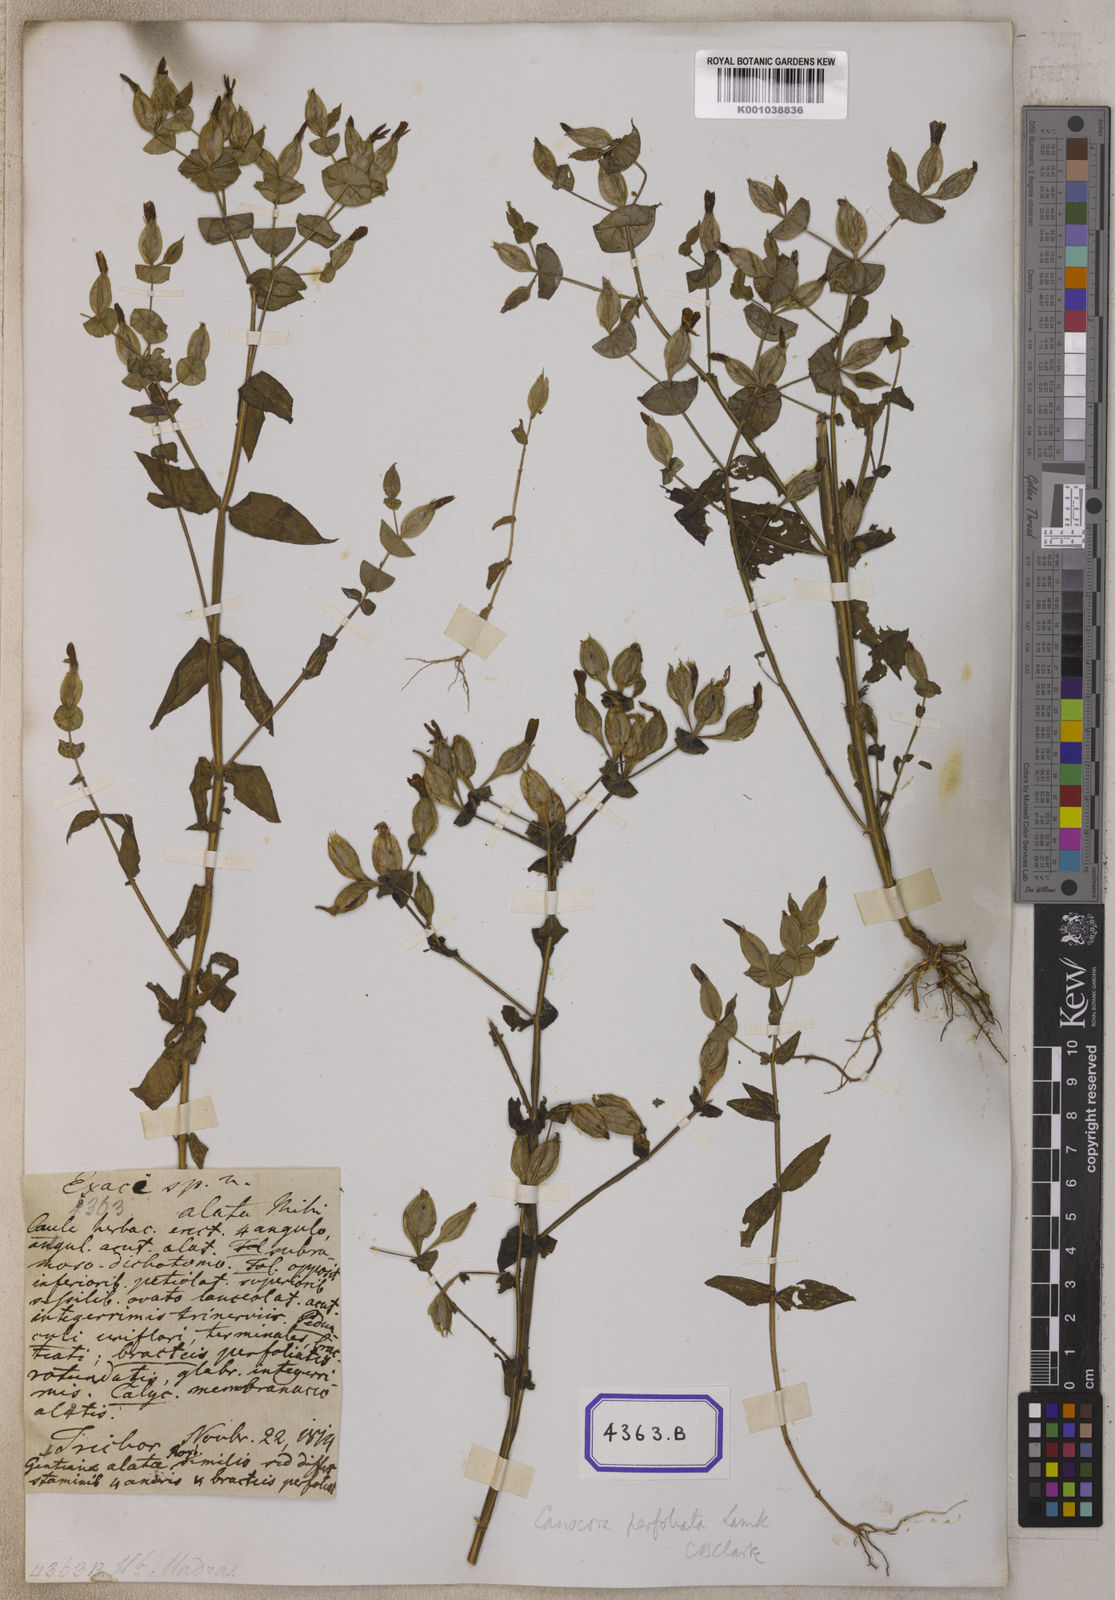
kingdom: Plantae
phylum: Tracheophyta
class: Magnoliopsida
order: Gentianales
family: Gentianaceae
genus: Canscora
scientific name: Canscora alata
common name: Canscora
